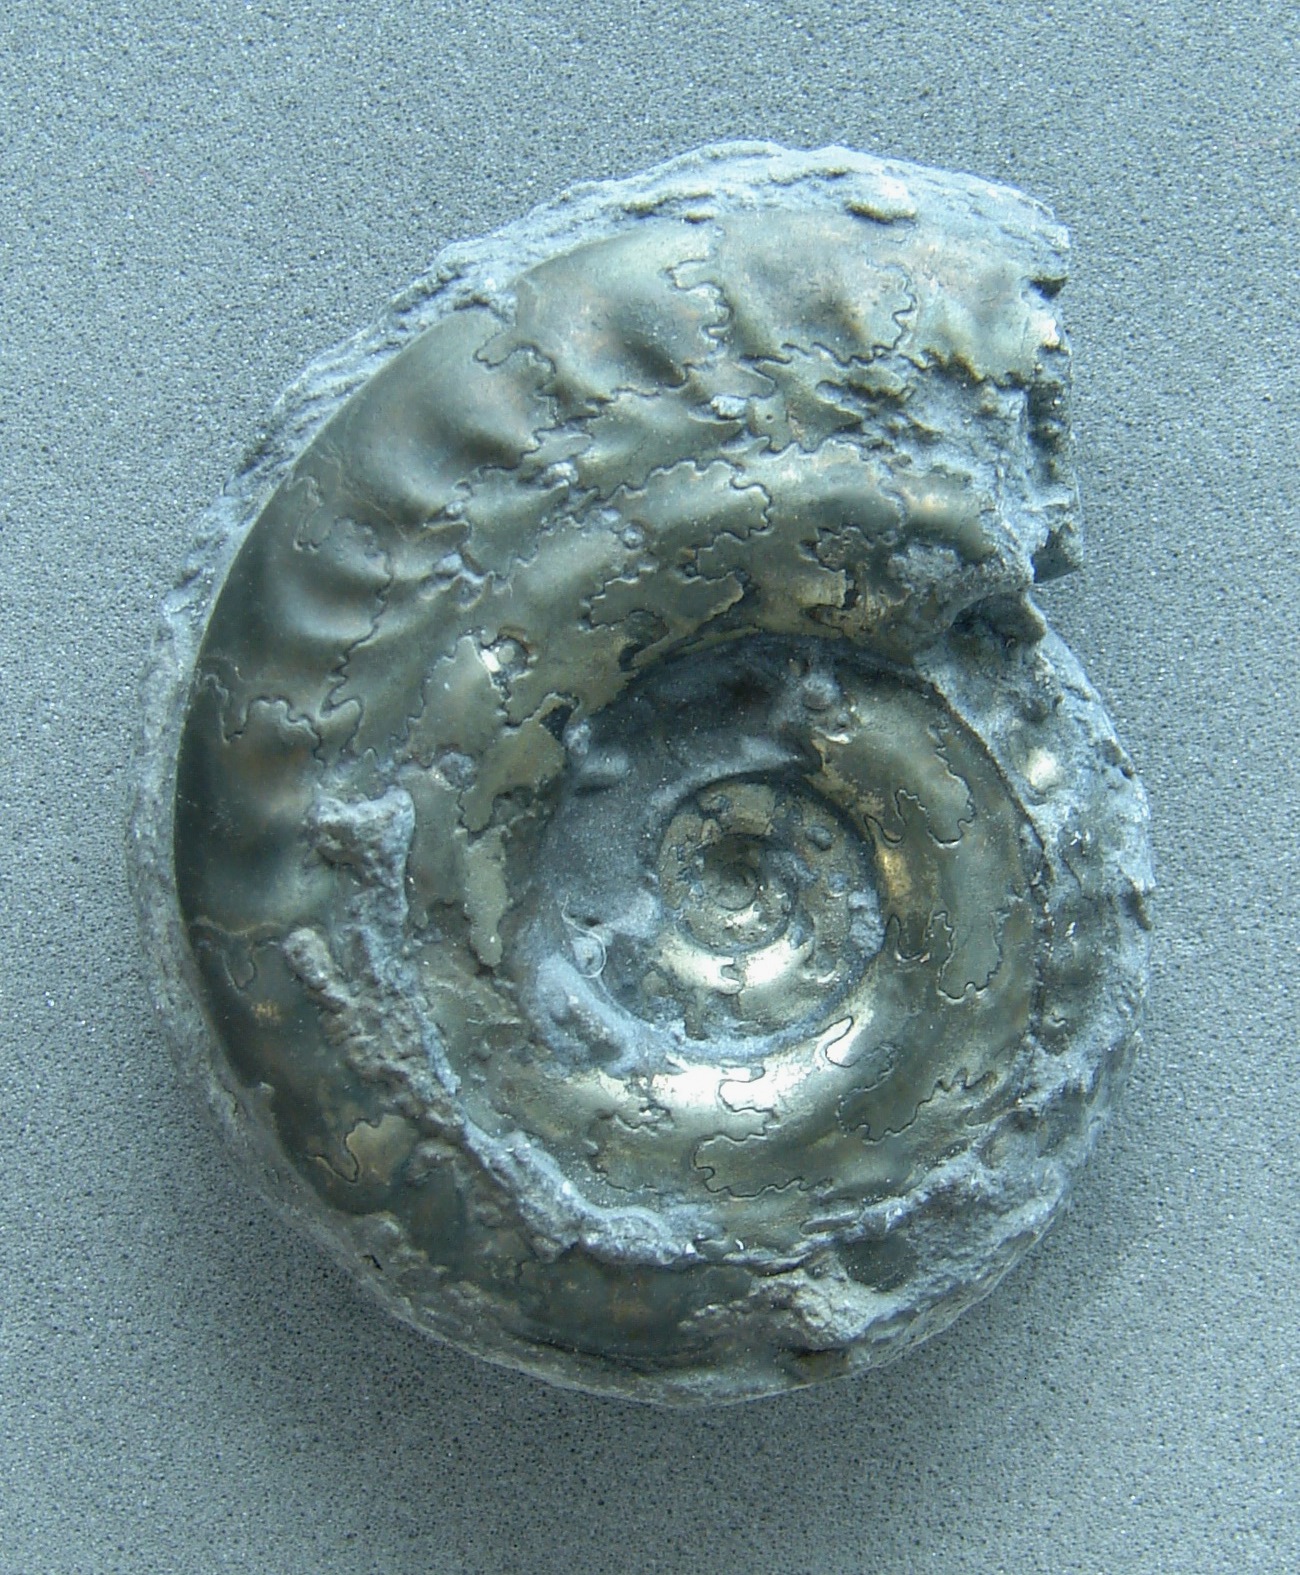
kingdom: Animalia
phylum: Mollusca
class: Cephalopoda
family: Hildoceratidae
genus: Hildoceras
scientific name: Hildoceras bifrons
